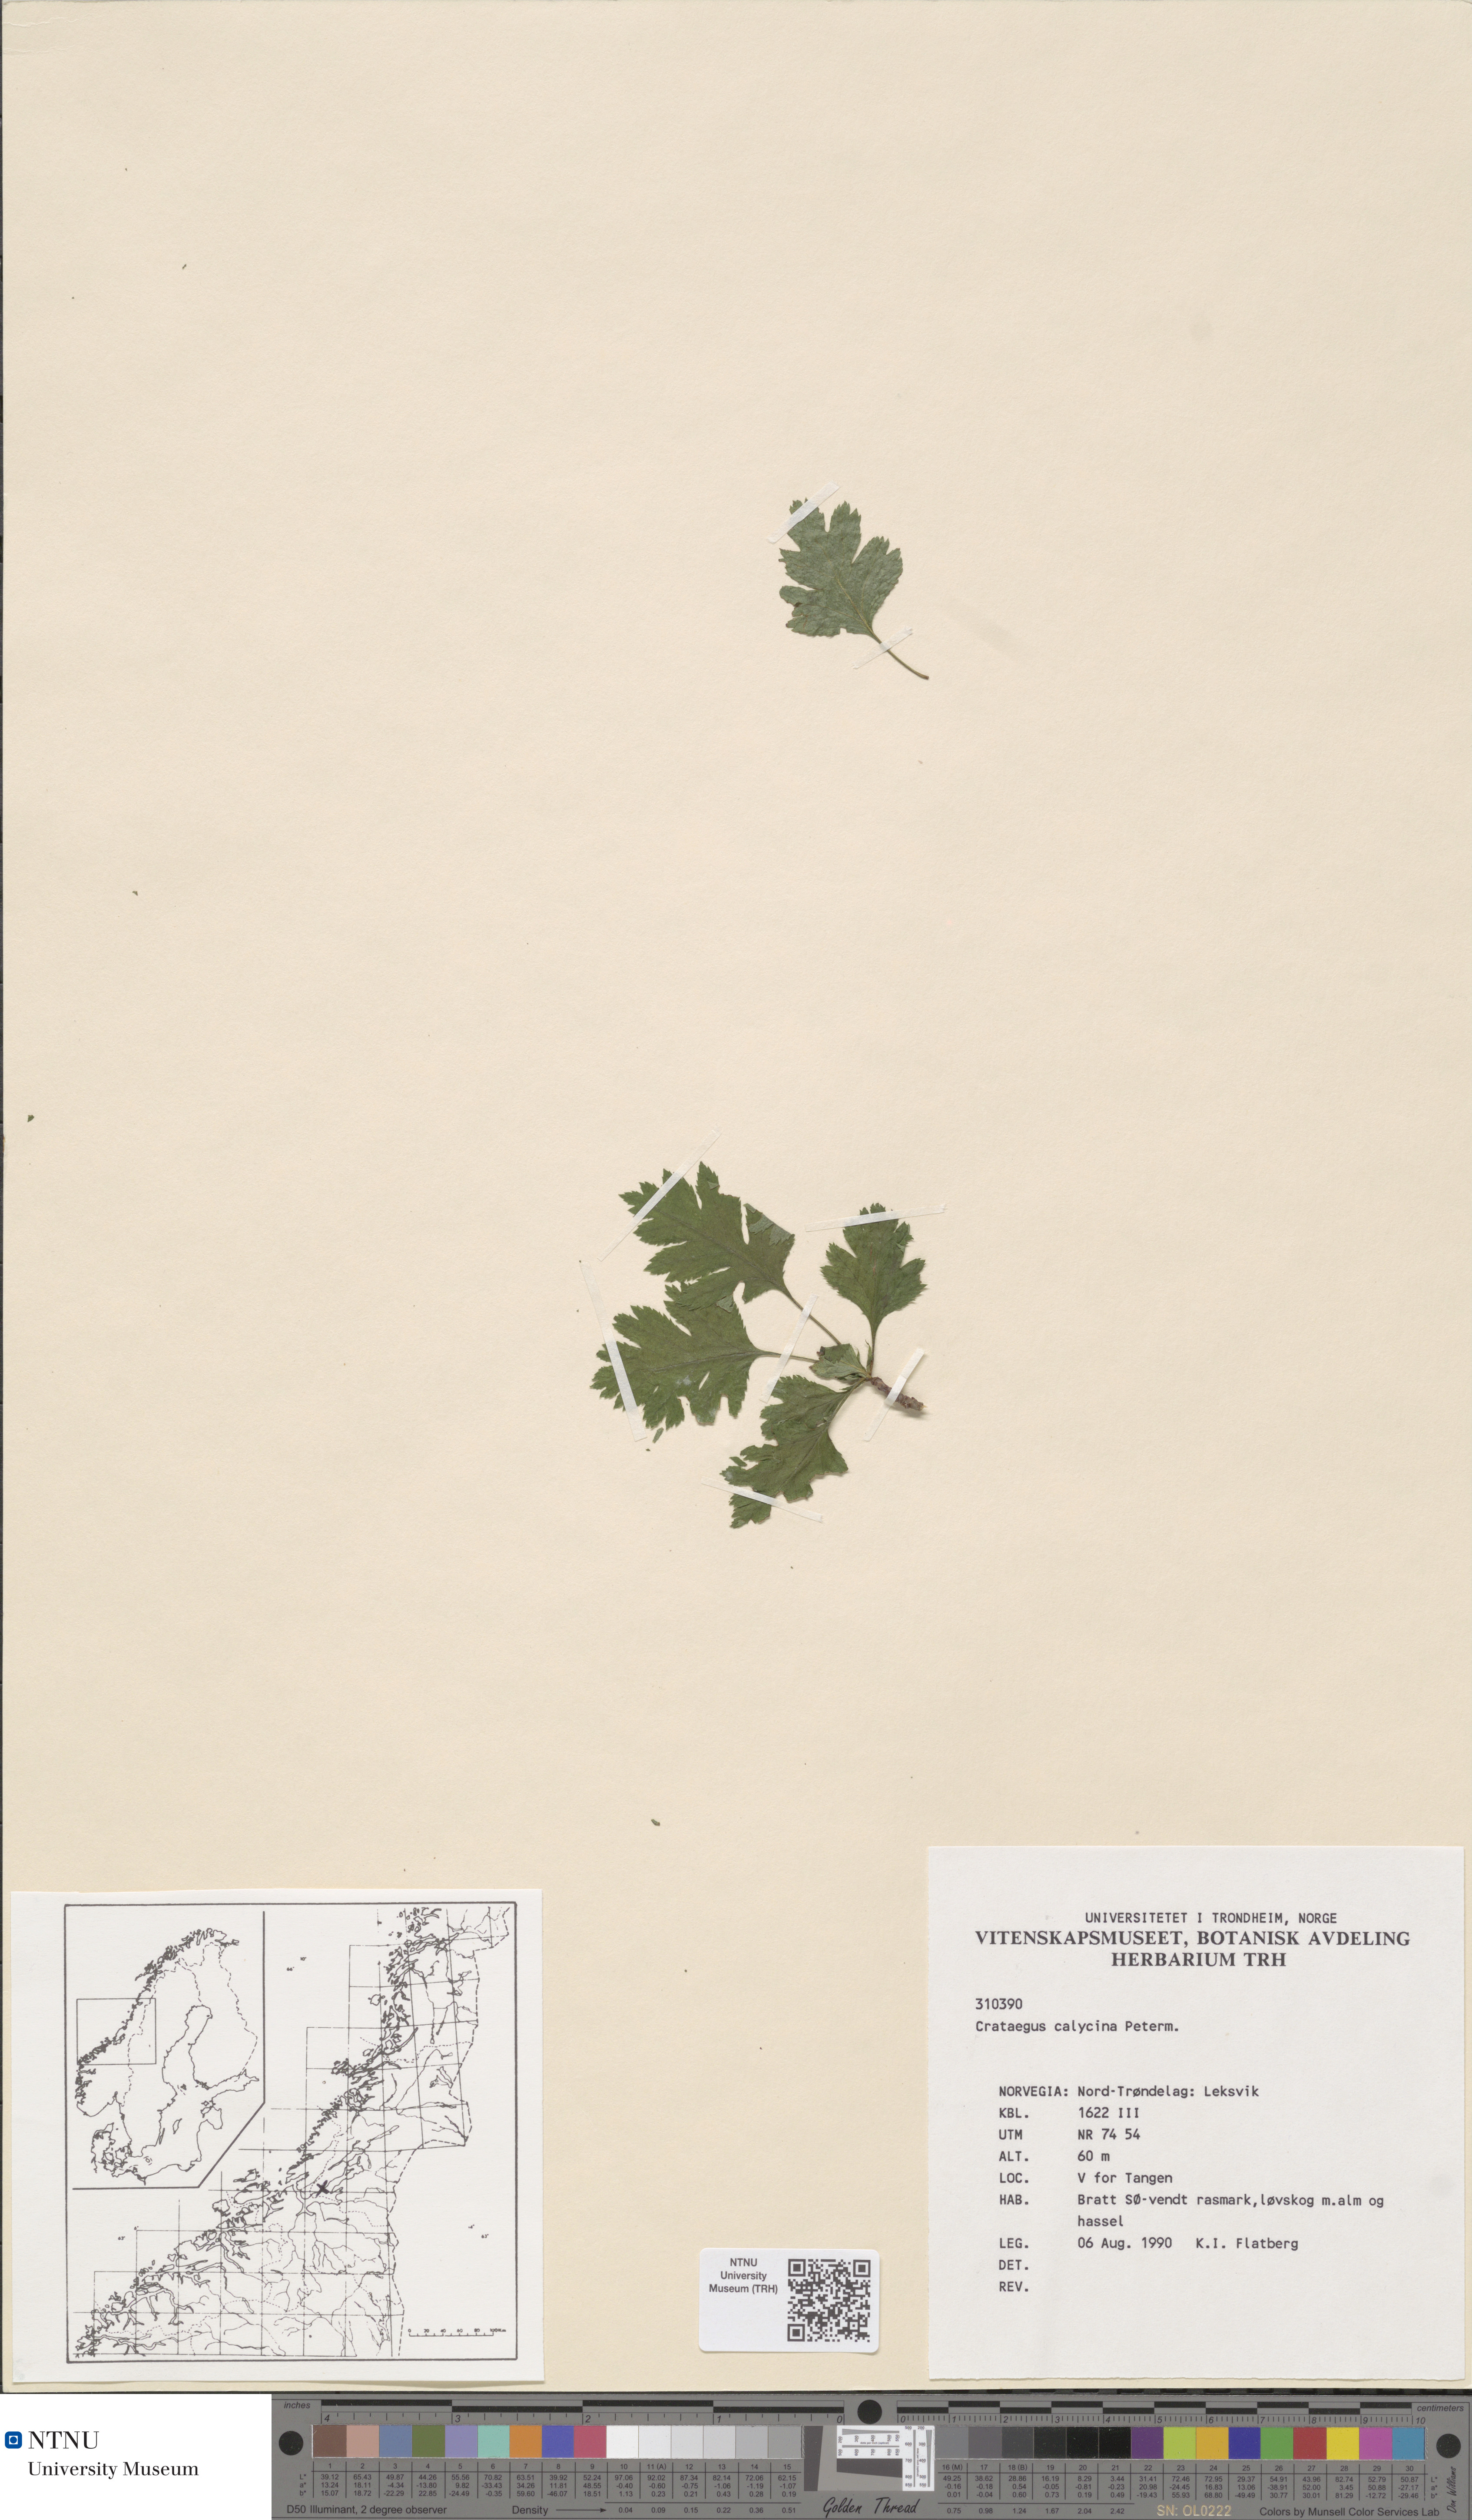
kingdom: Plantae
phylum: Tracheophyta
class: Magnoliopsida
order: Rosales
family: Rosaceae
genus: Crataegus
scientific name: Crataegus lindmanii
